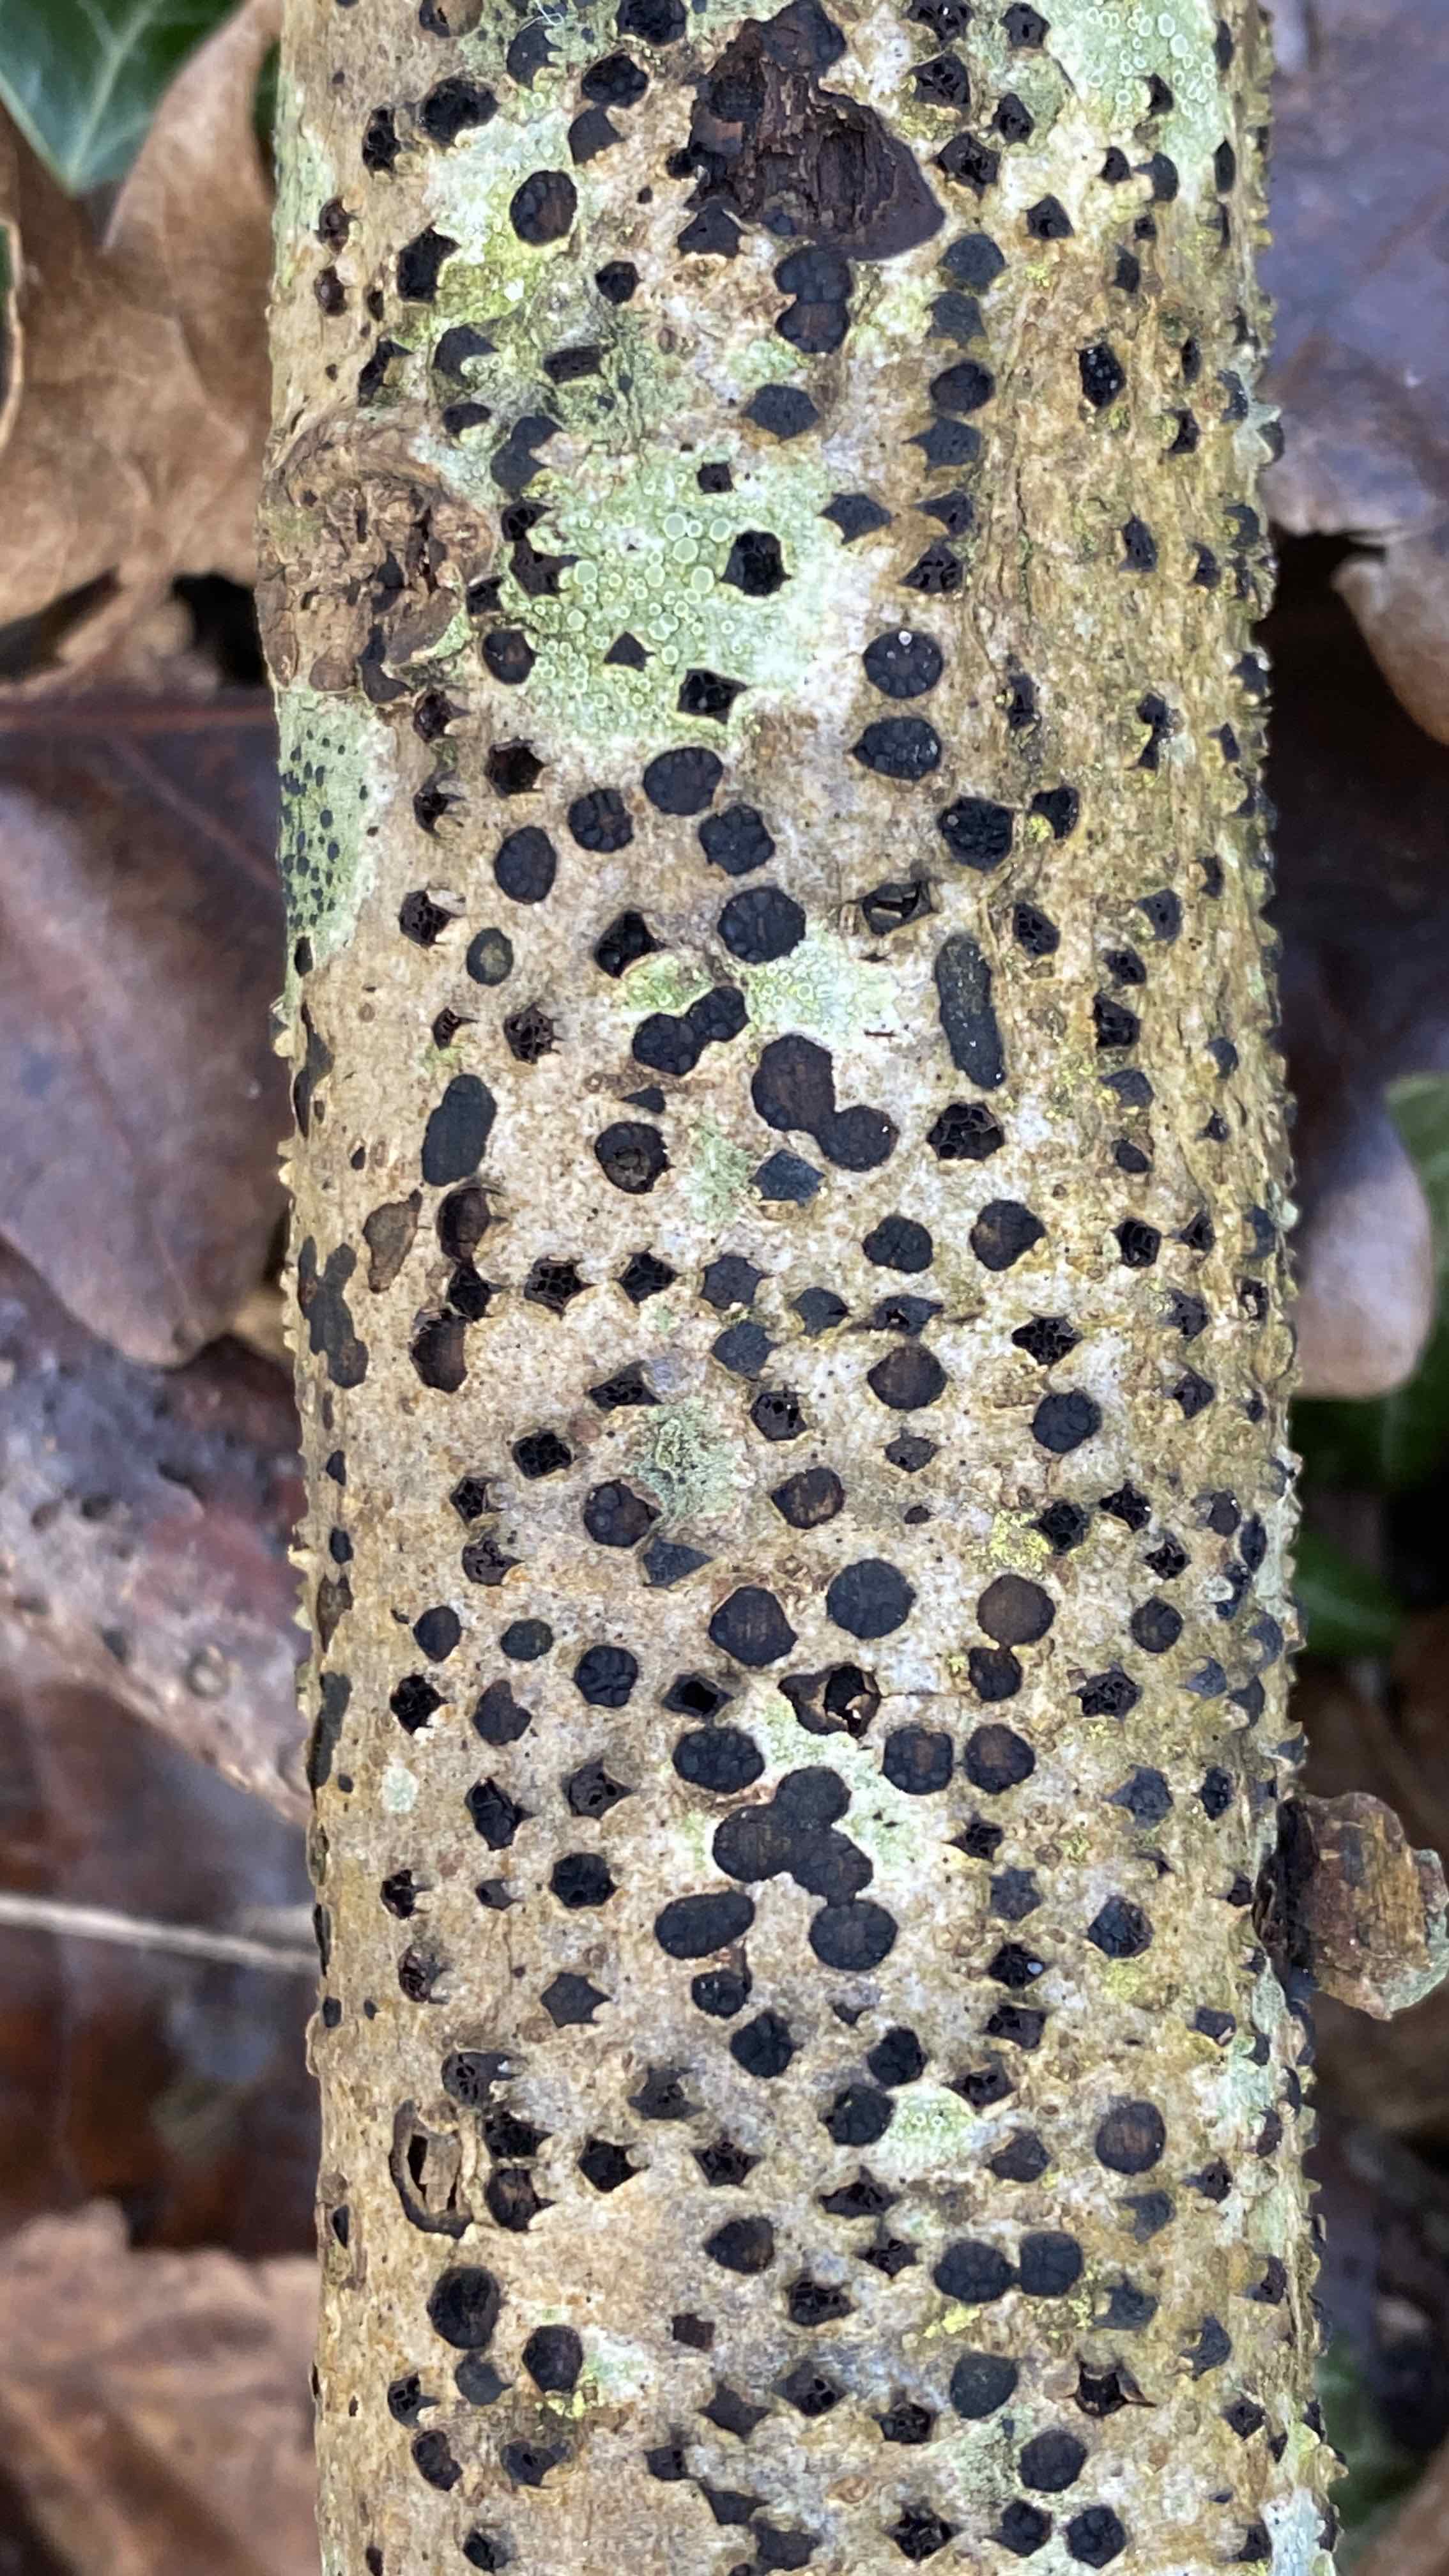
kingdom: Fungi
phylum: Ascomycota
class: Sordariomycetes
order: Xylariales
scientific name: Xylariales
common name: stødsvampordenen
